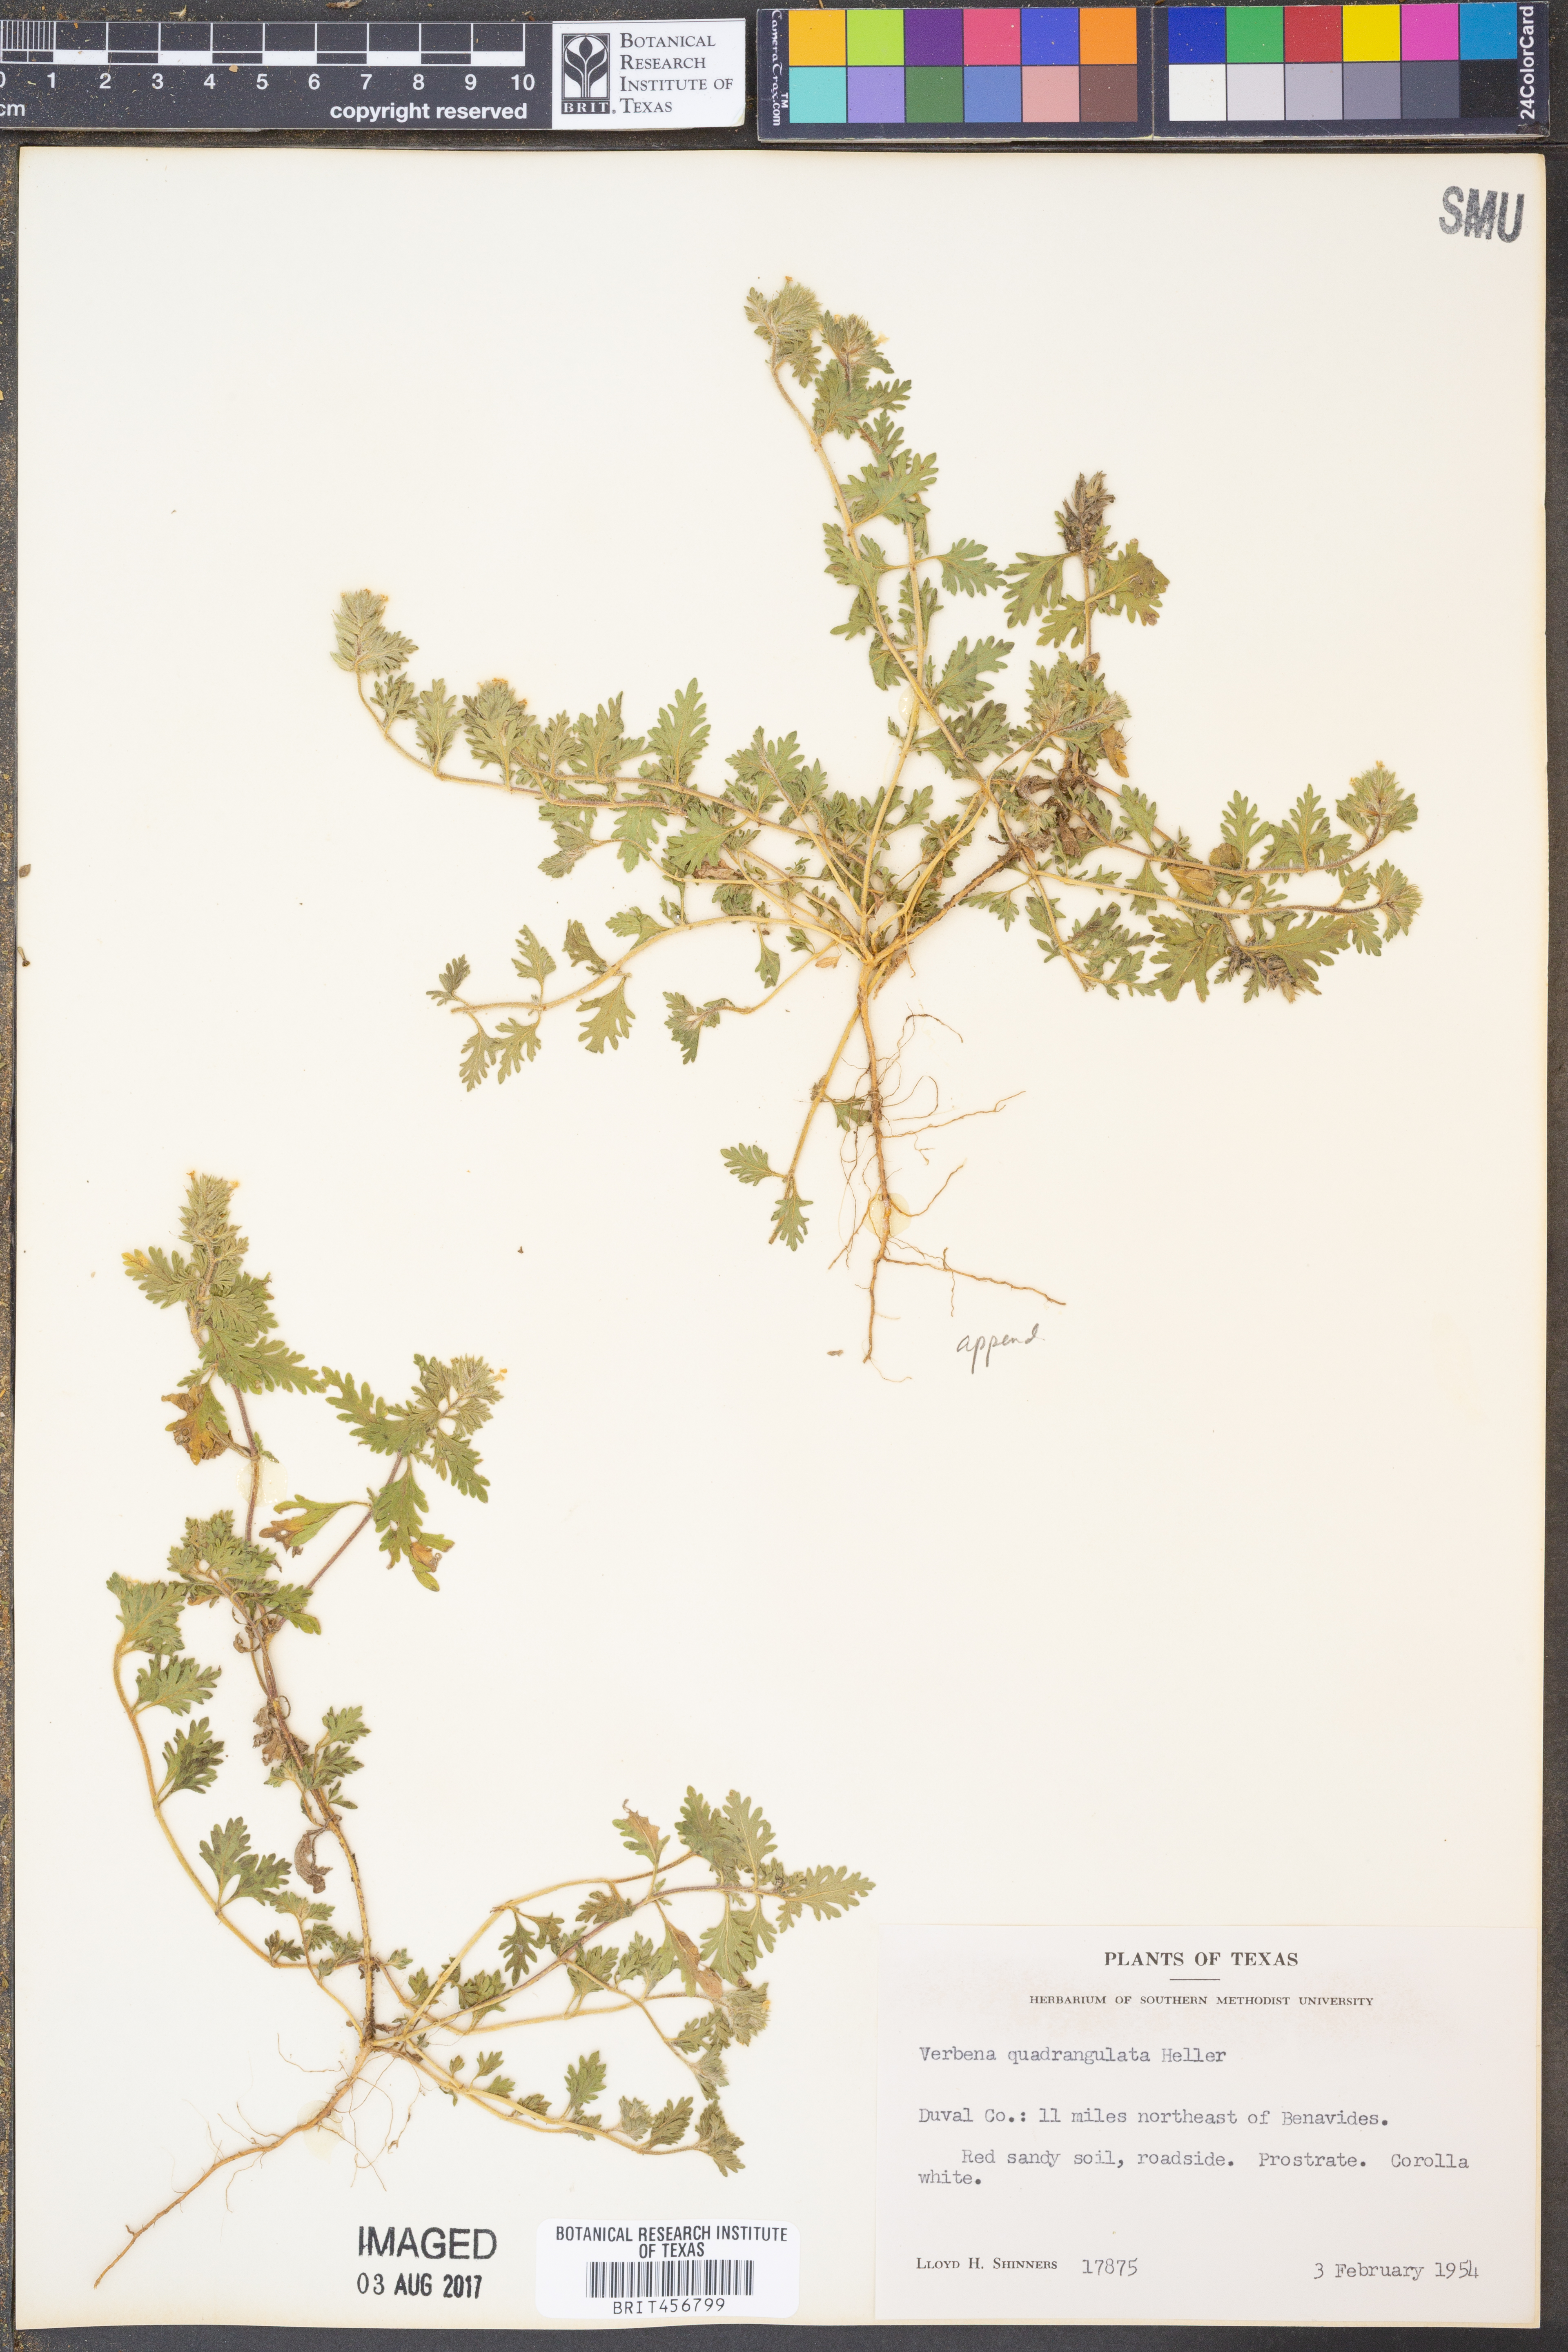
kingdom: Plantae
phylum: Tracheophyta
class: Magnoliopsida
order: Lamiales
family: Verbenaceae
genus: Verbena
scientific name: Verbena quadrangulata
